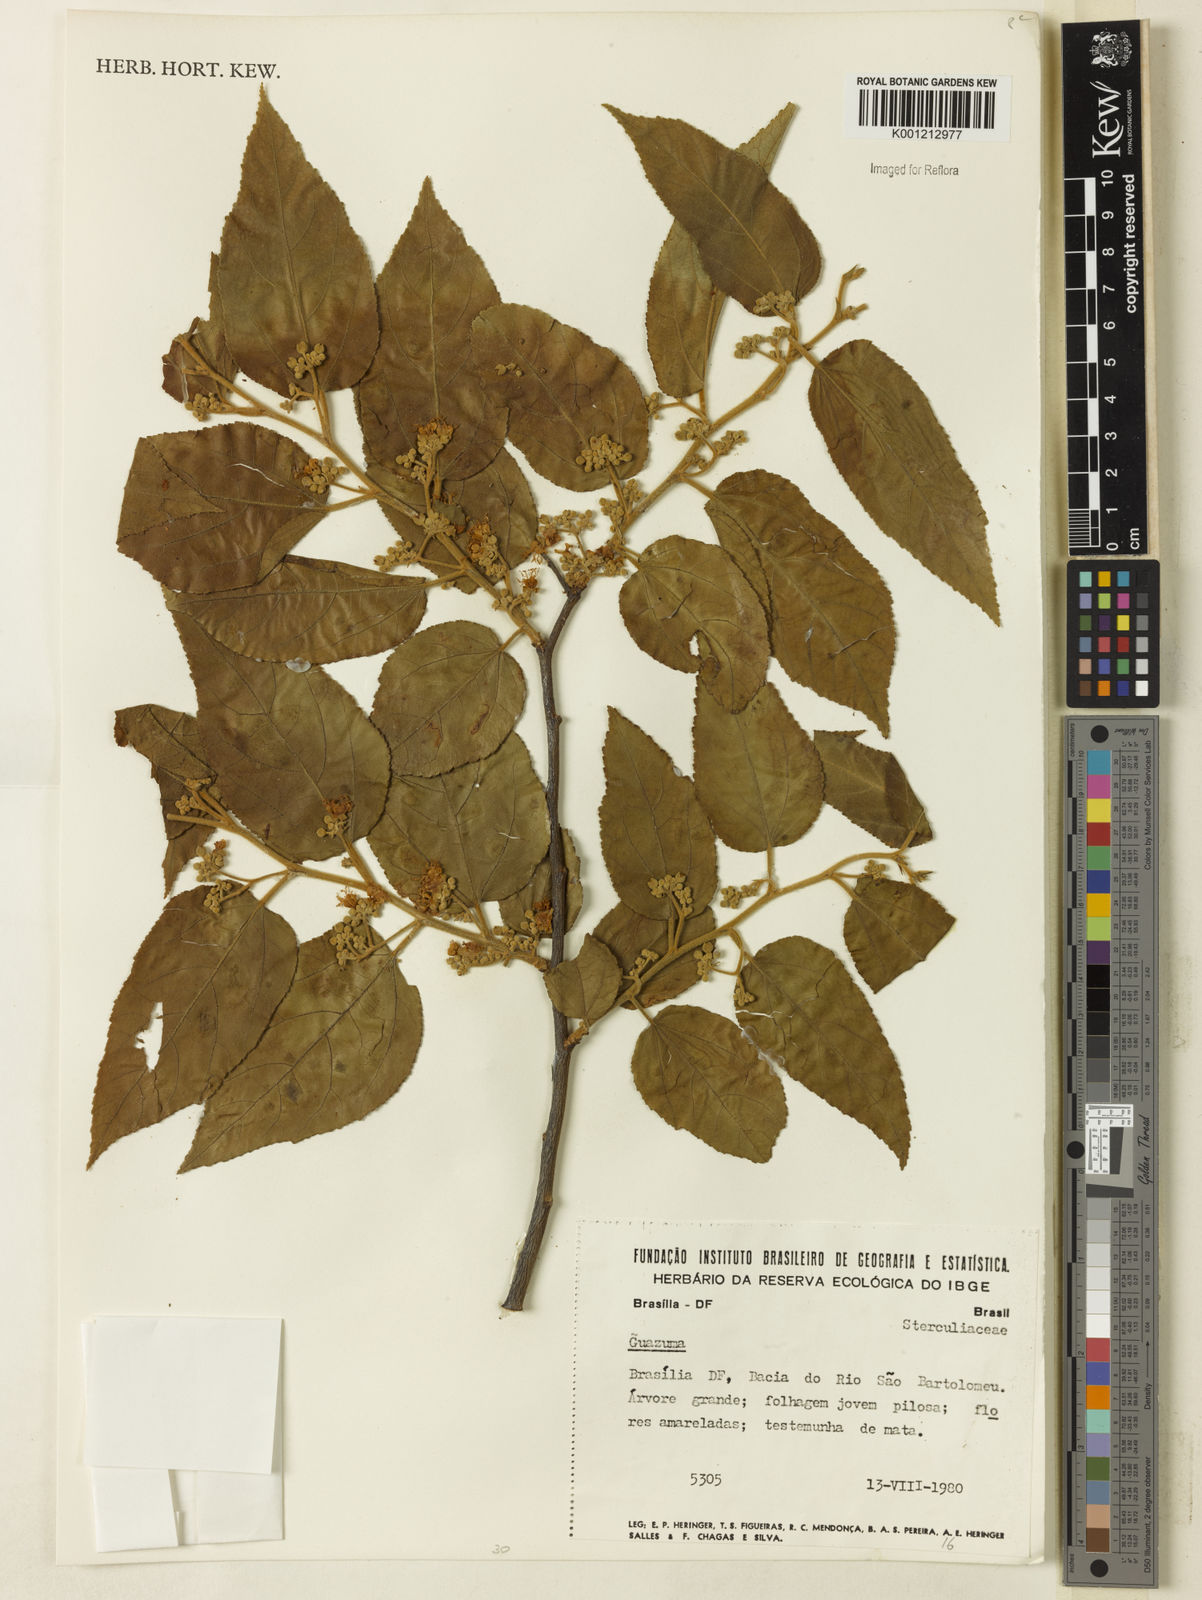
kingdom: Plantae
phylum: Tracheophyta
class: Magnoliopsida
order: Malvales
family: Malvaceae
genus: Guazuma
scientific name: Guazuma
